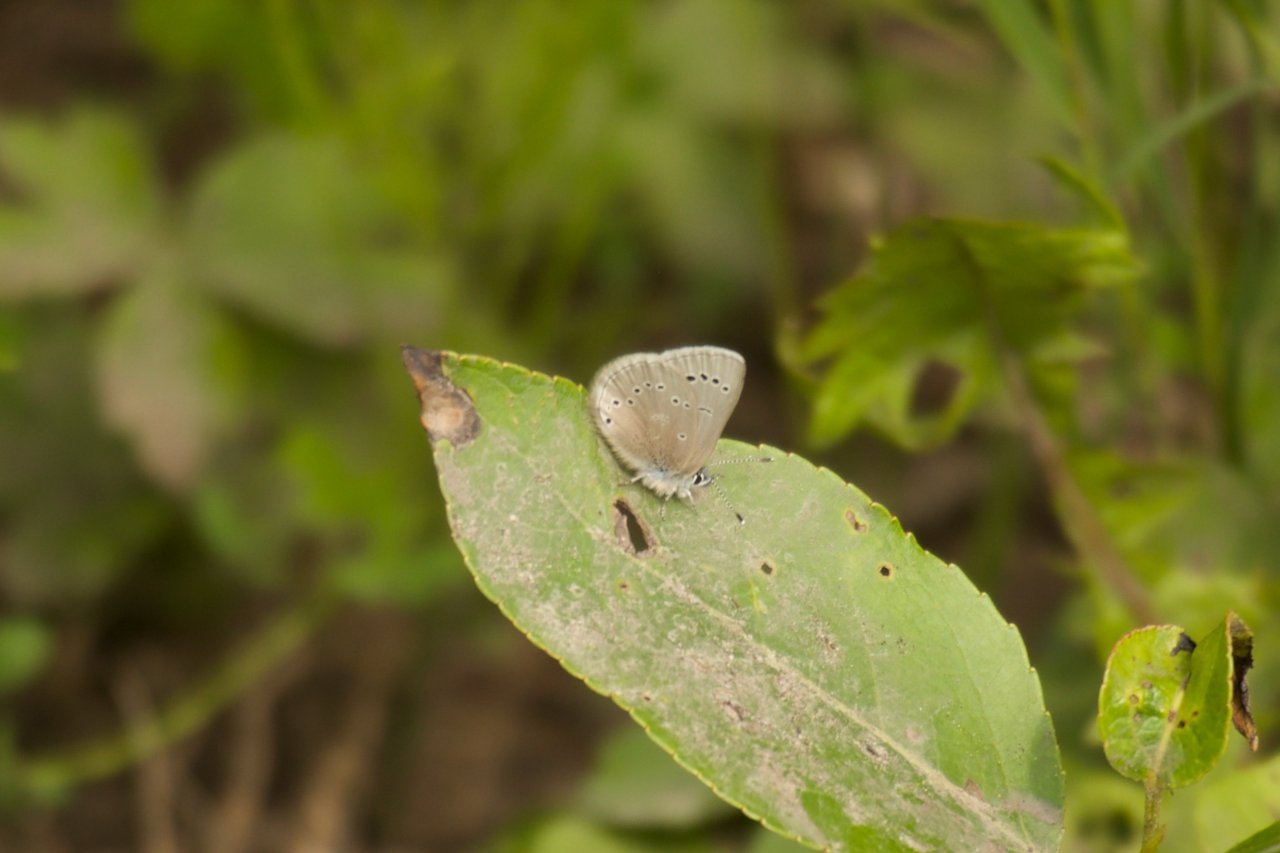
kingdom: Animalia
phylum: Arthropoda
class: Insecta
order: Lepidoptera
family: Lycaenidae
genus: Glaucopsyche
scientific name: Glaucopsyche lygdamus
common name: Silvery Blue
